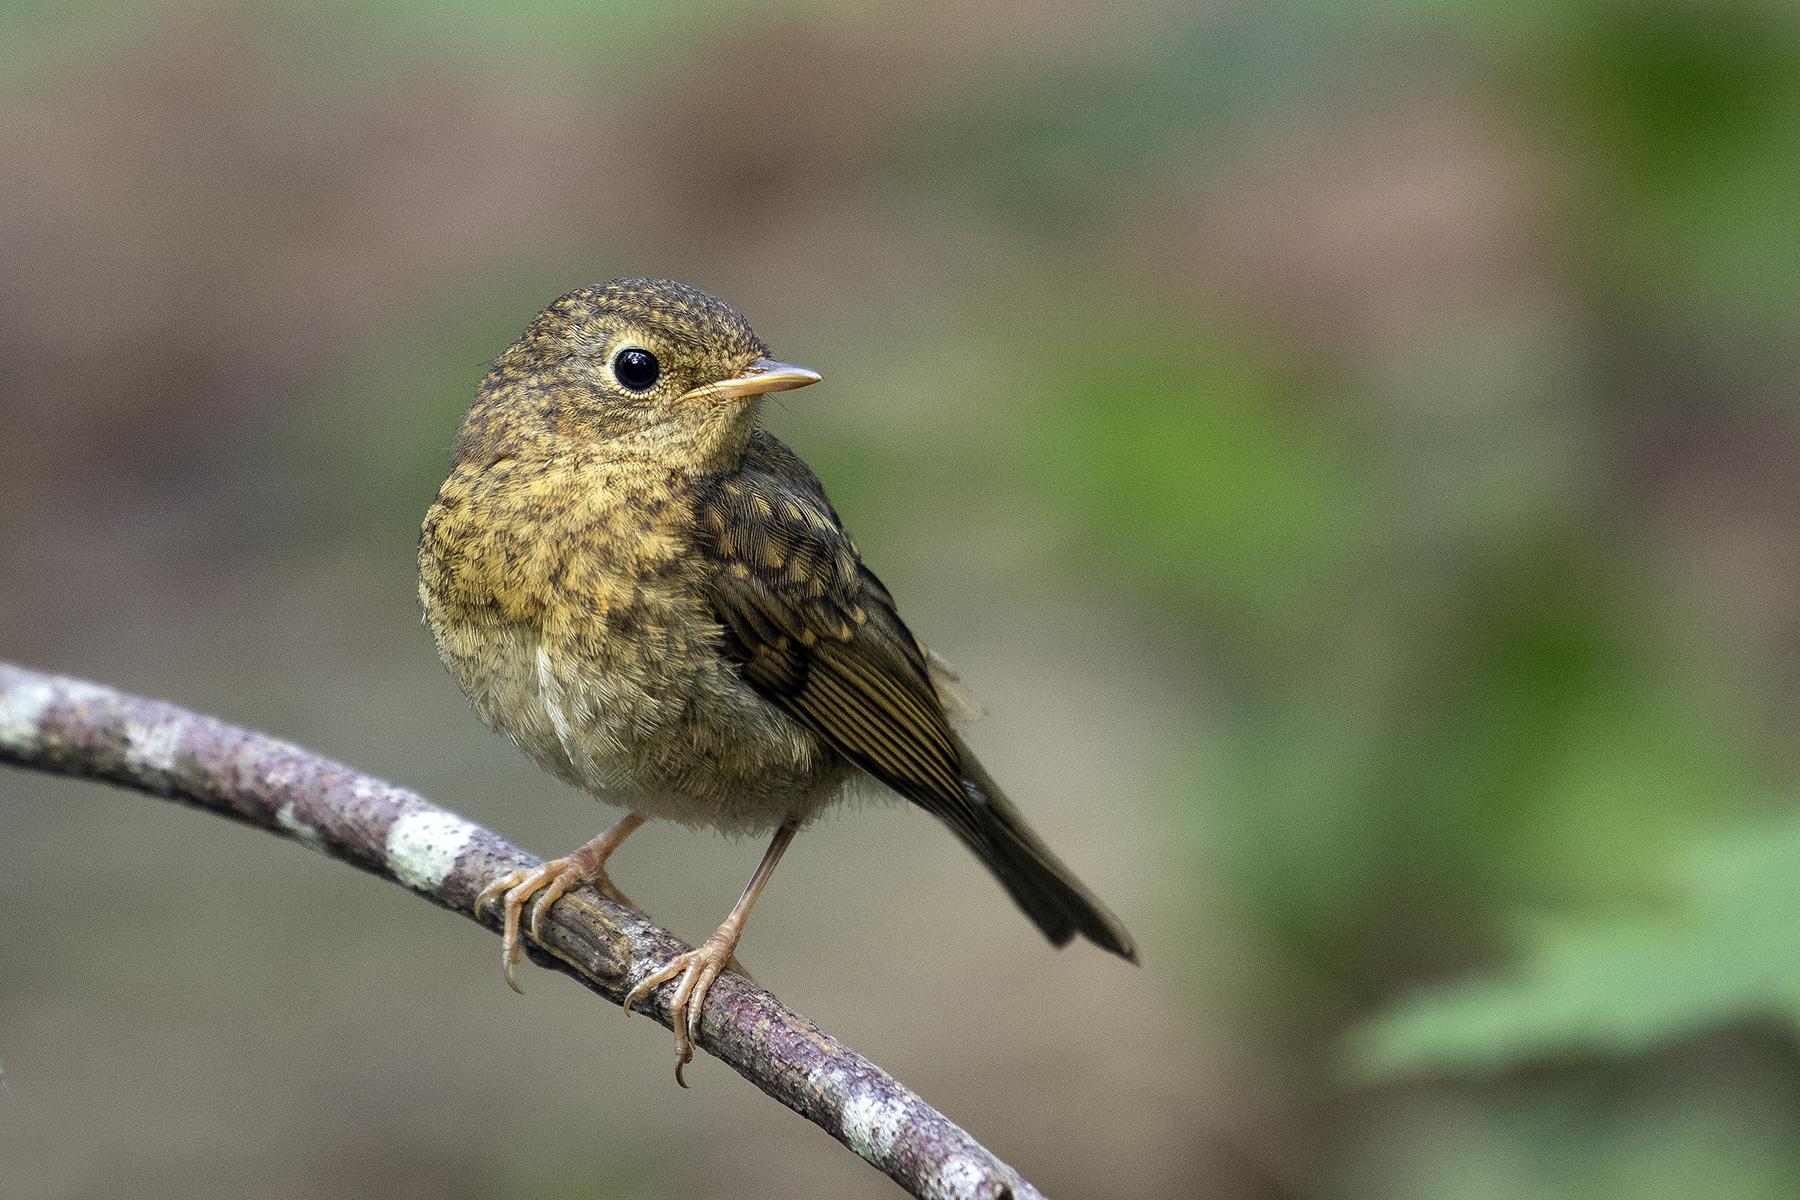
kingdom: Animalia
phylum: Chordata
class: Aves
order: Passeriformes
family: Muscicapidae
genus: Erithacus
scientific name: Erithacus rubecula
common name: Rødhals/rødkælk
